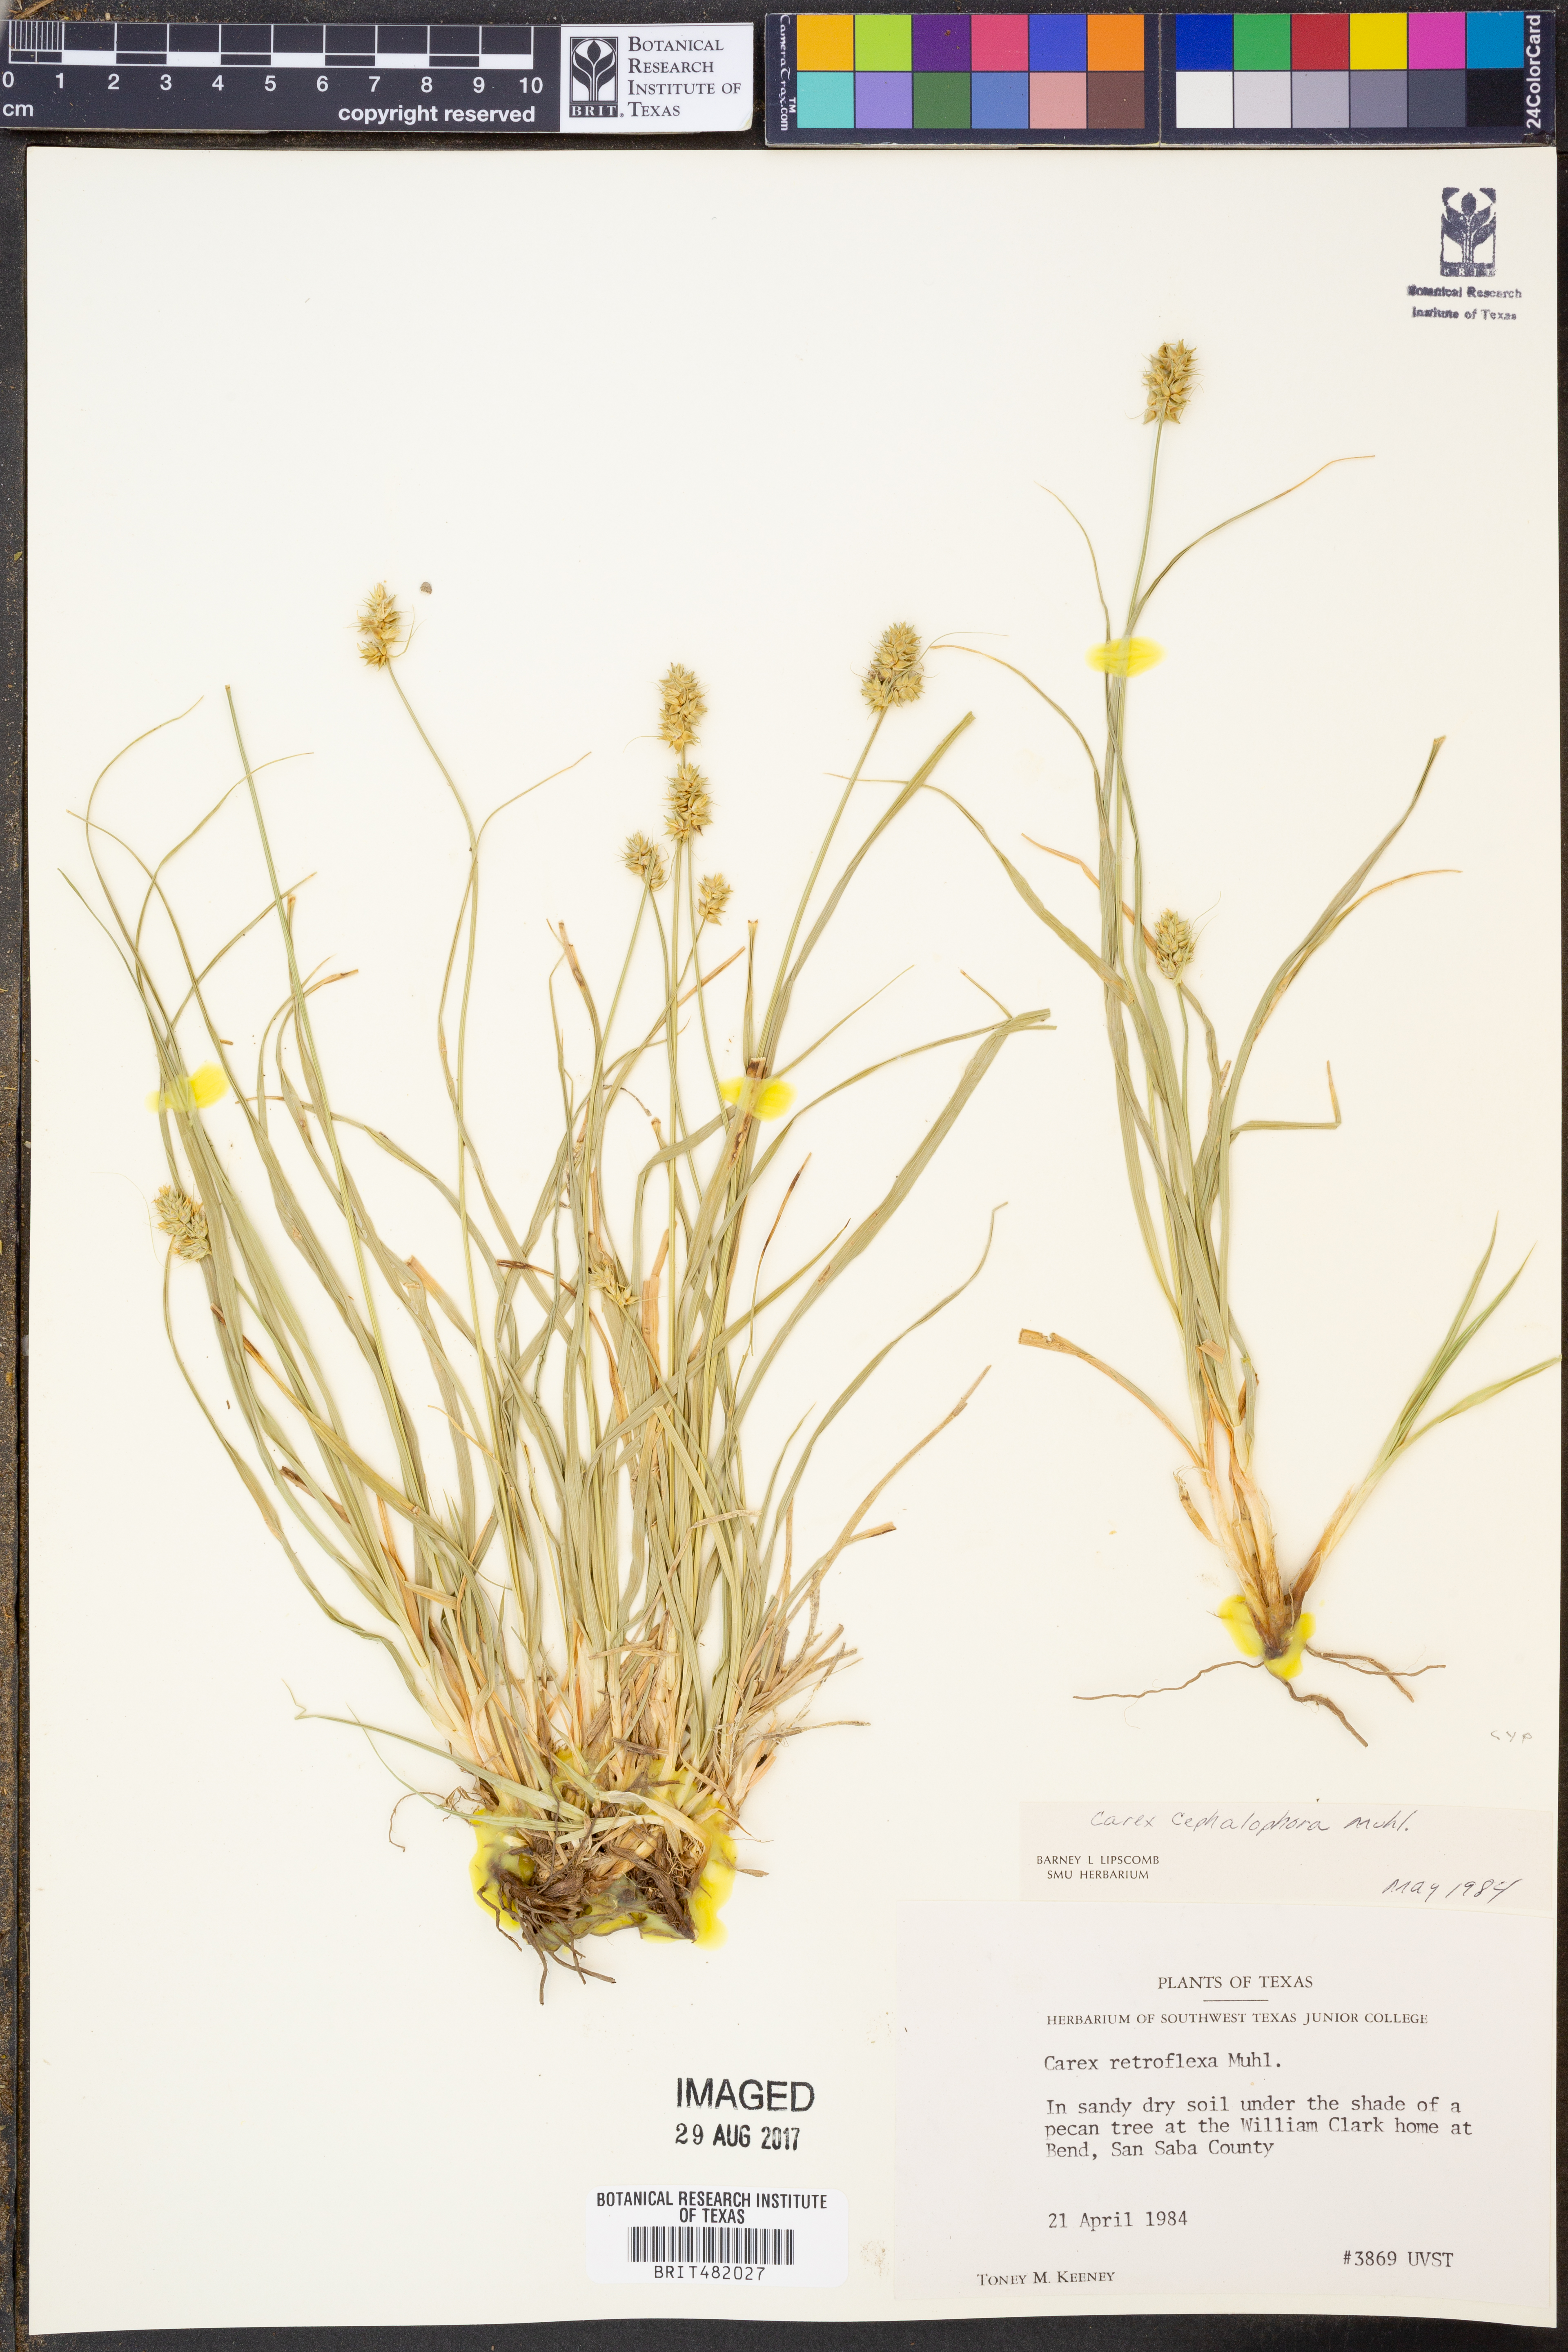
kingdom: Plantae
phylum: Tracheophyta
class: Liliopsida
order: Poales
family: Cyperaceae
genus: Carex
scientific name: Carex cephalophora
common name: Oval-headed sedge
